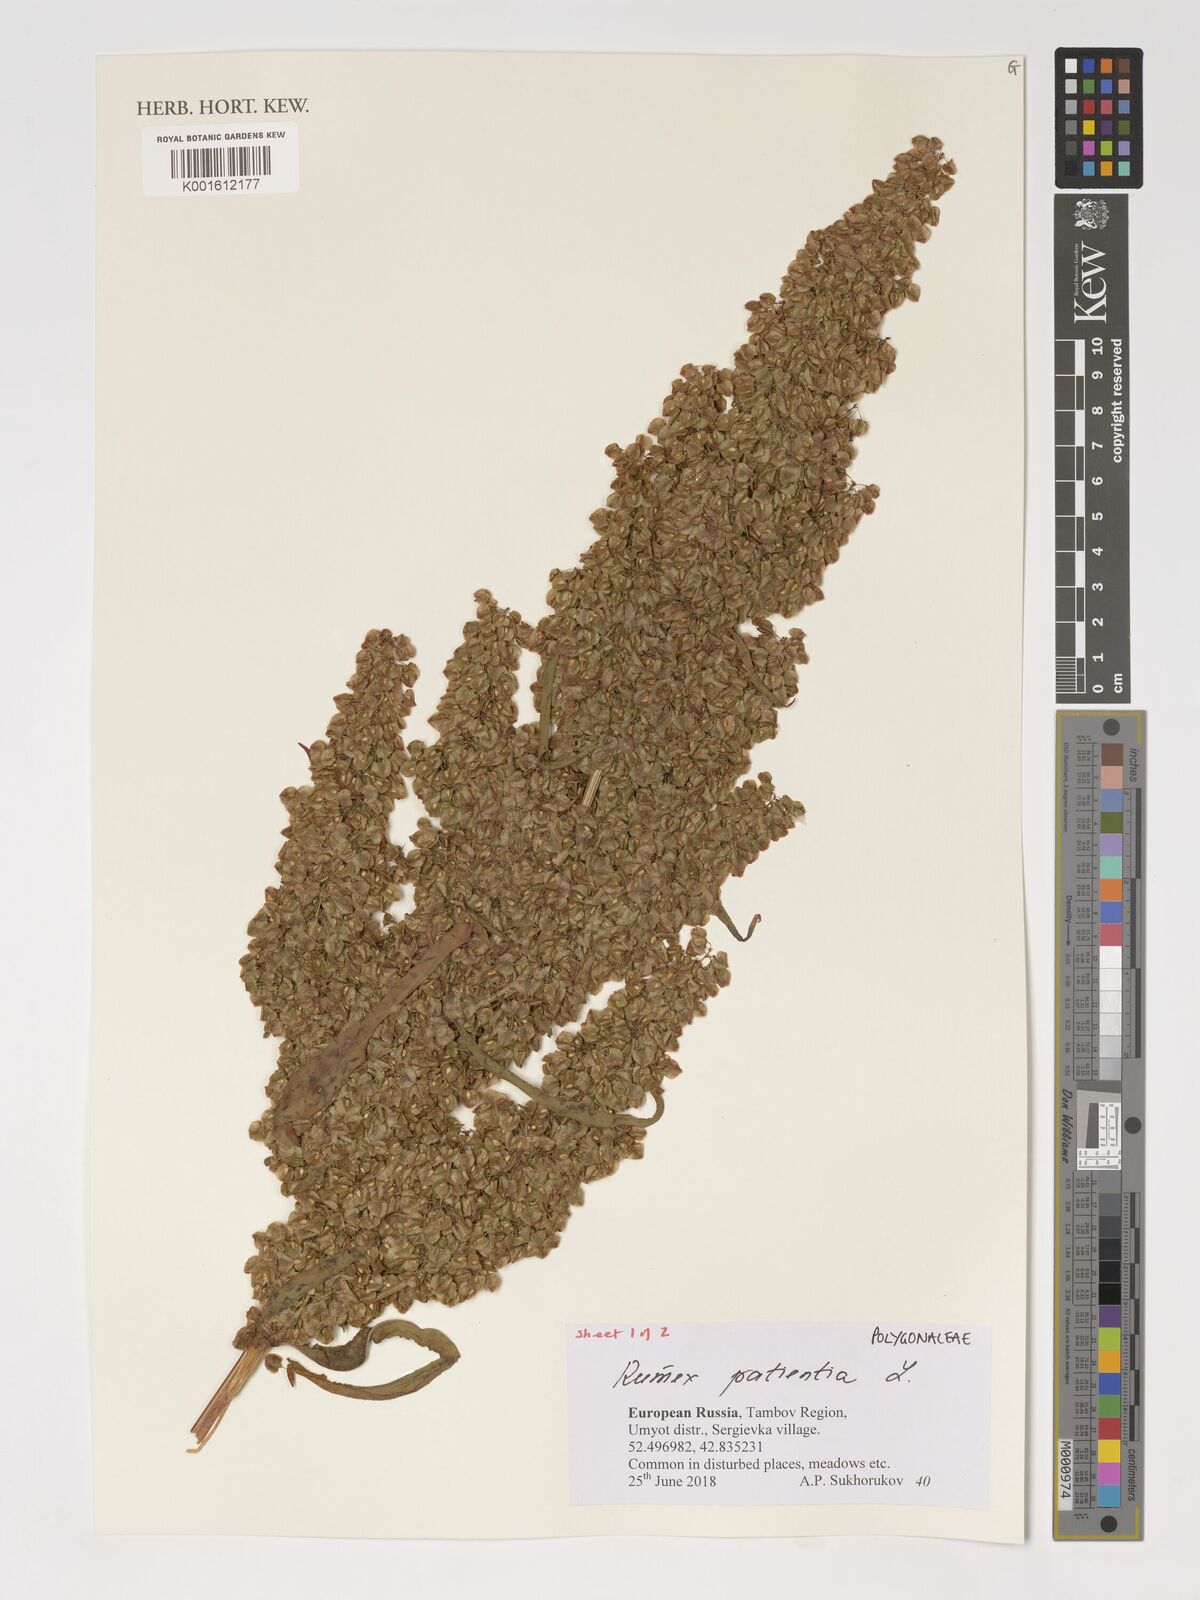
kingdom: Plantae
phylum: Tracheophyta
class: Magnoliopsida
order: Caryophyllales
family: Polygonaceae
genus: Rumex
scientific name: Rumex patientia
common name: Patience dock
